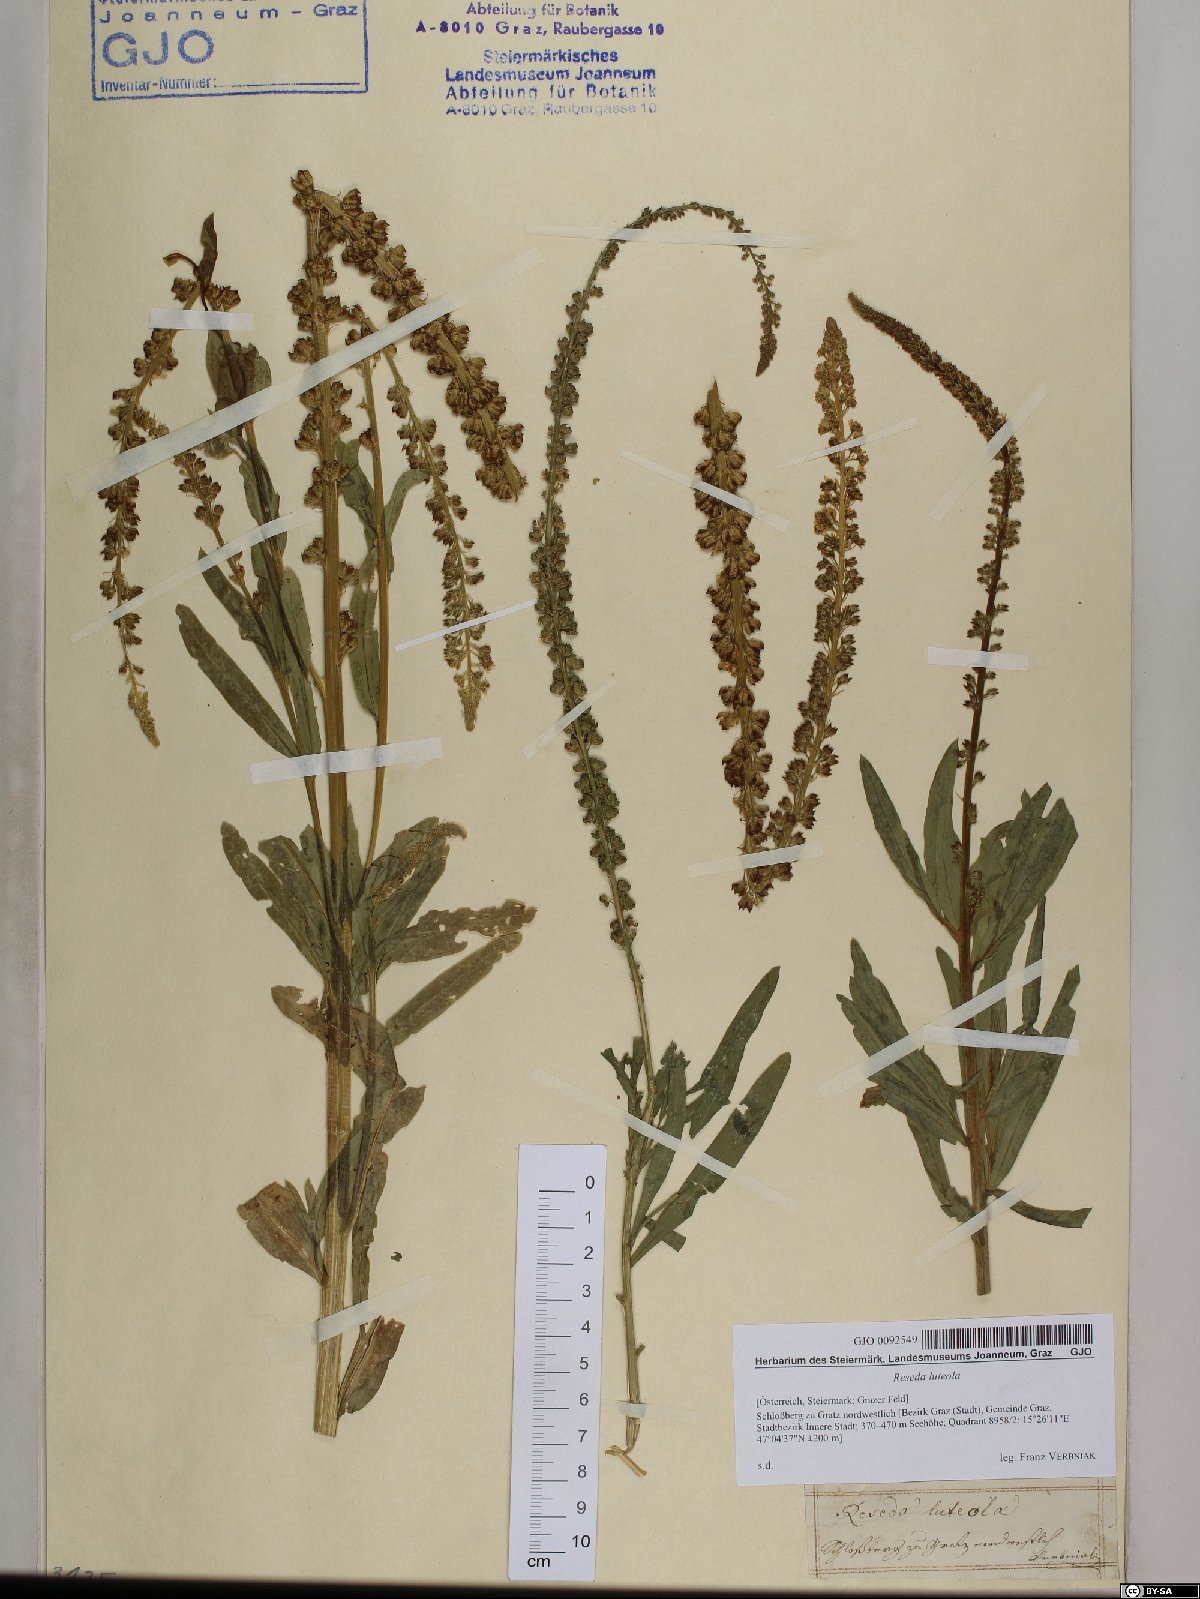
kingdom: Plantae
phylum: Tracheophyta
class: Magnoliopsida
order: Brassicales
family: Resedaceae
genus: Reseda
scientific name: Reseda luteola
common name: Weld
